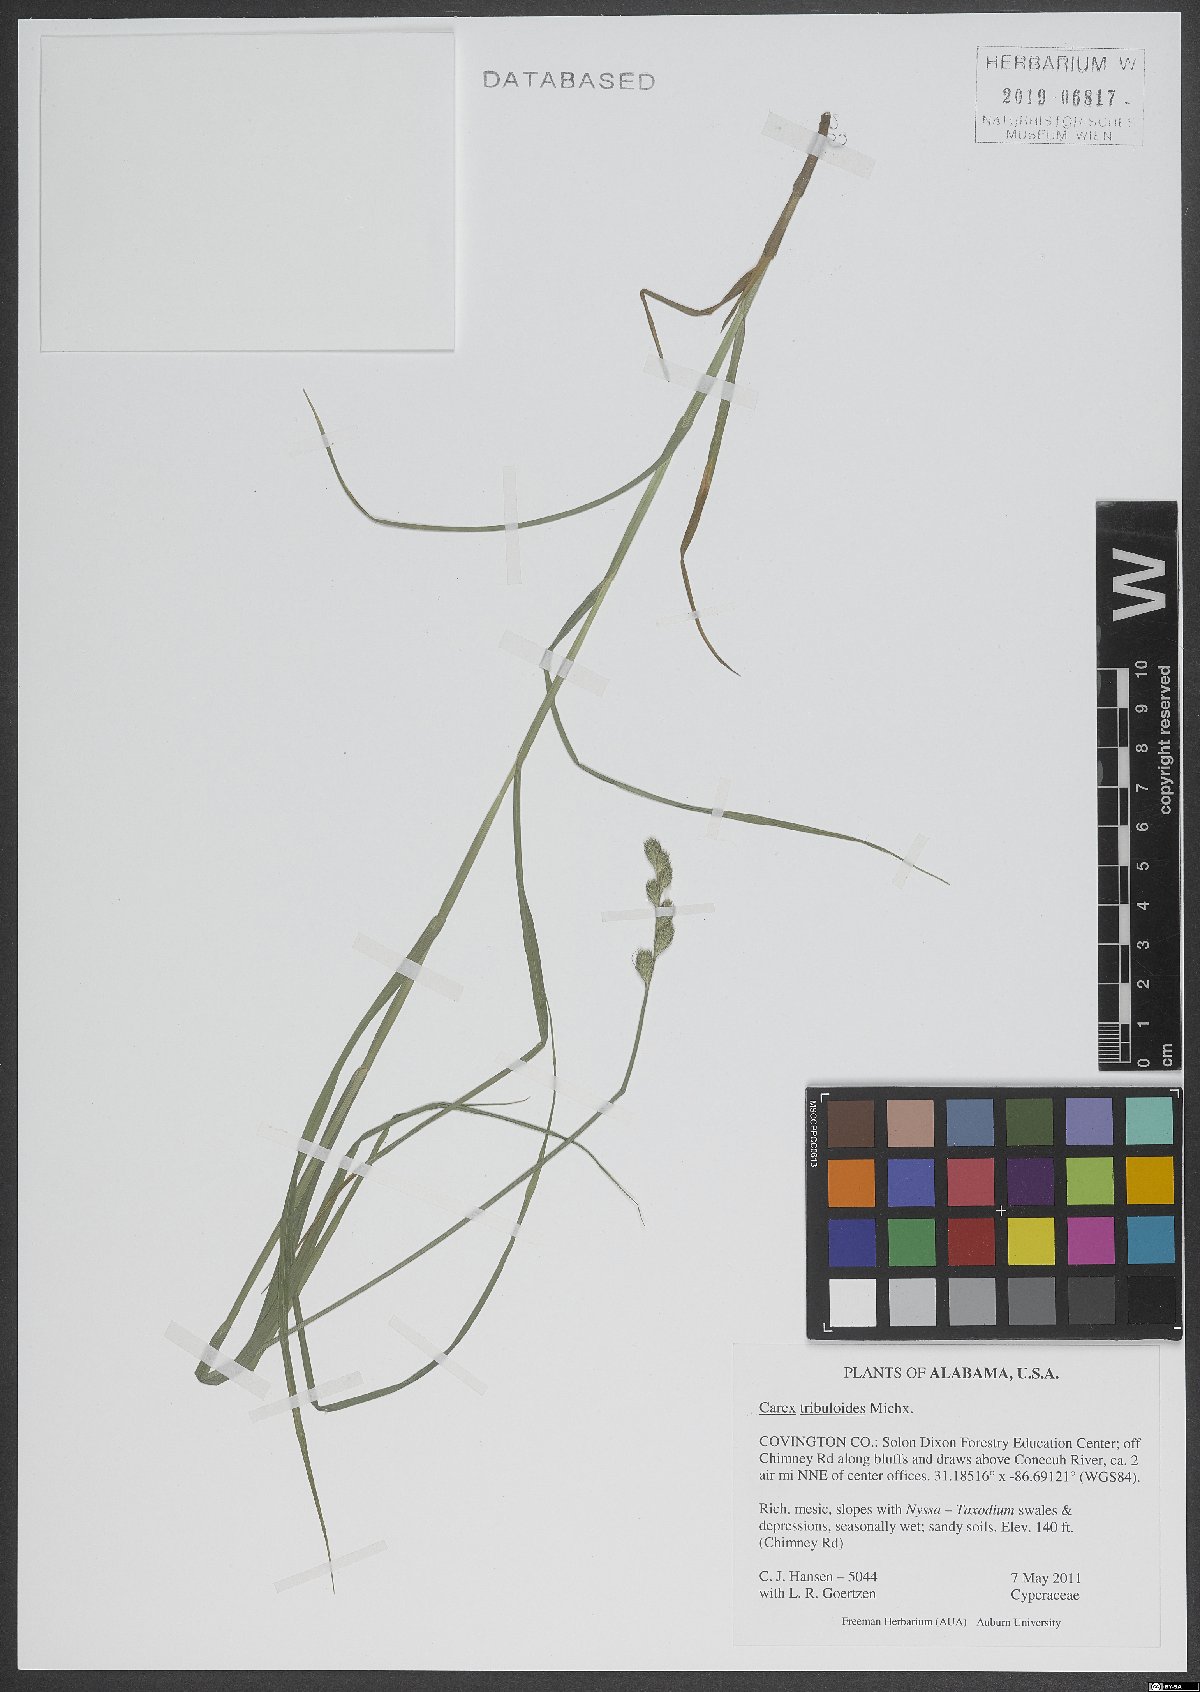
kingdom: Plantae
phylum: Tracheophyta
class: Liliopsida
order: Poales
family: Cyperaceae
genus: Carex
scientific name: Carex tribuloides
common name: Blunt broom sedge
